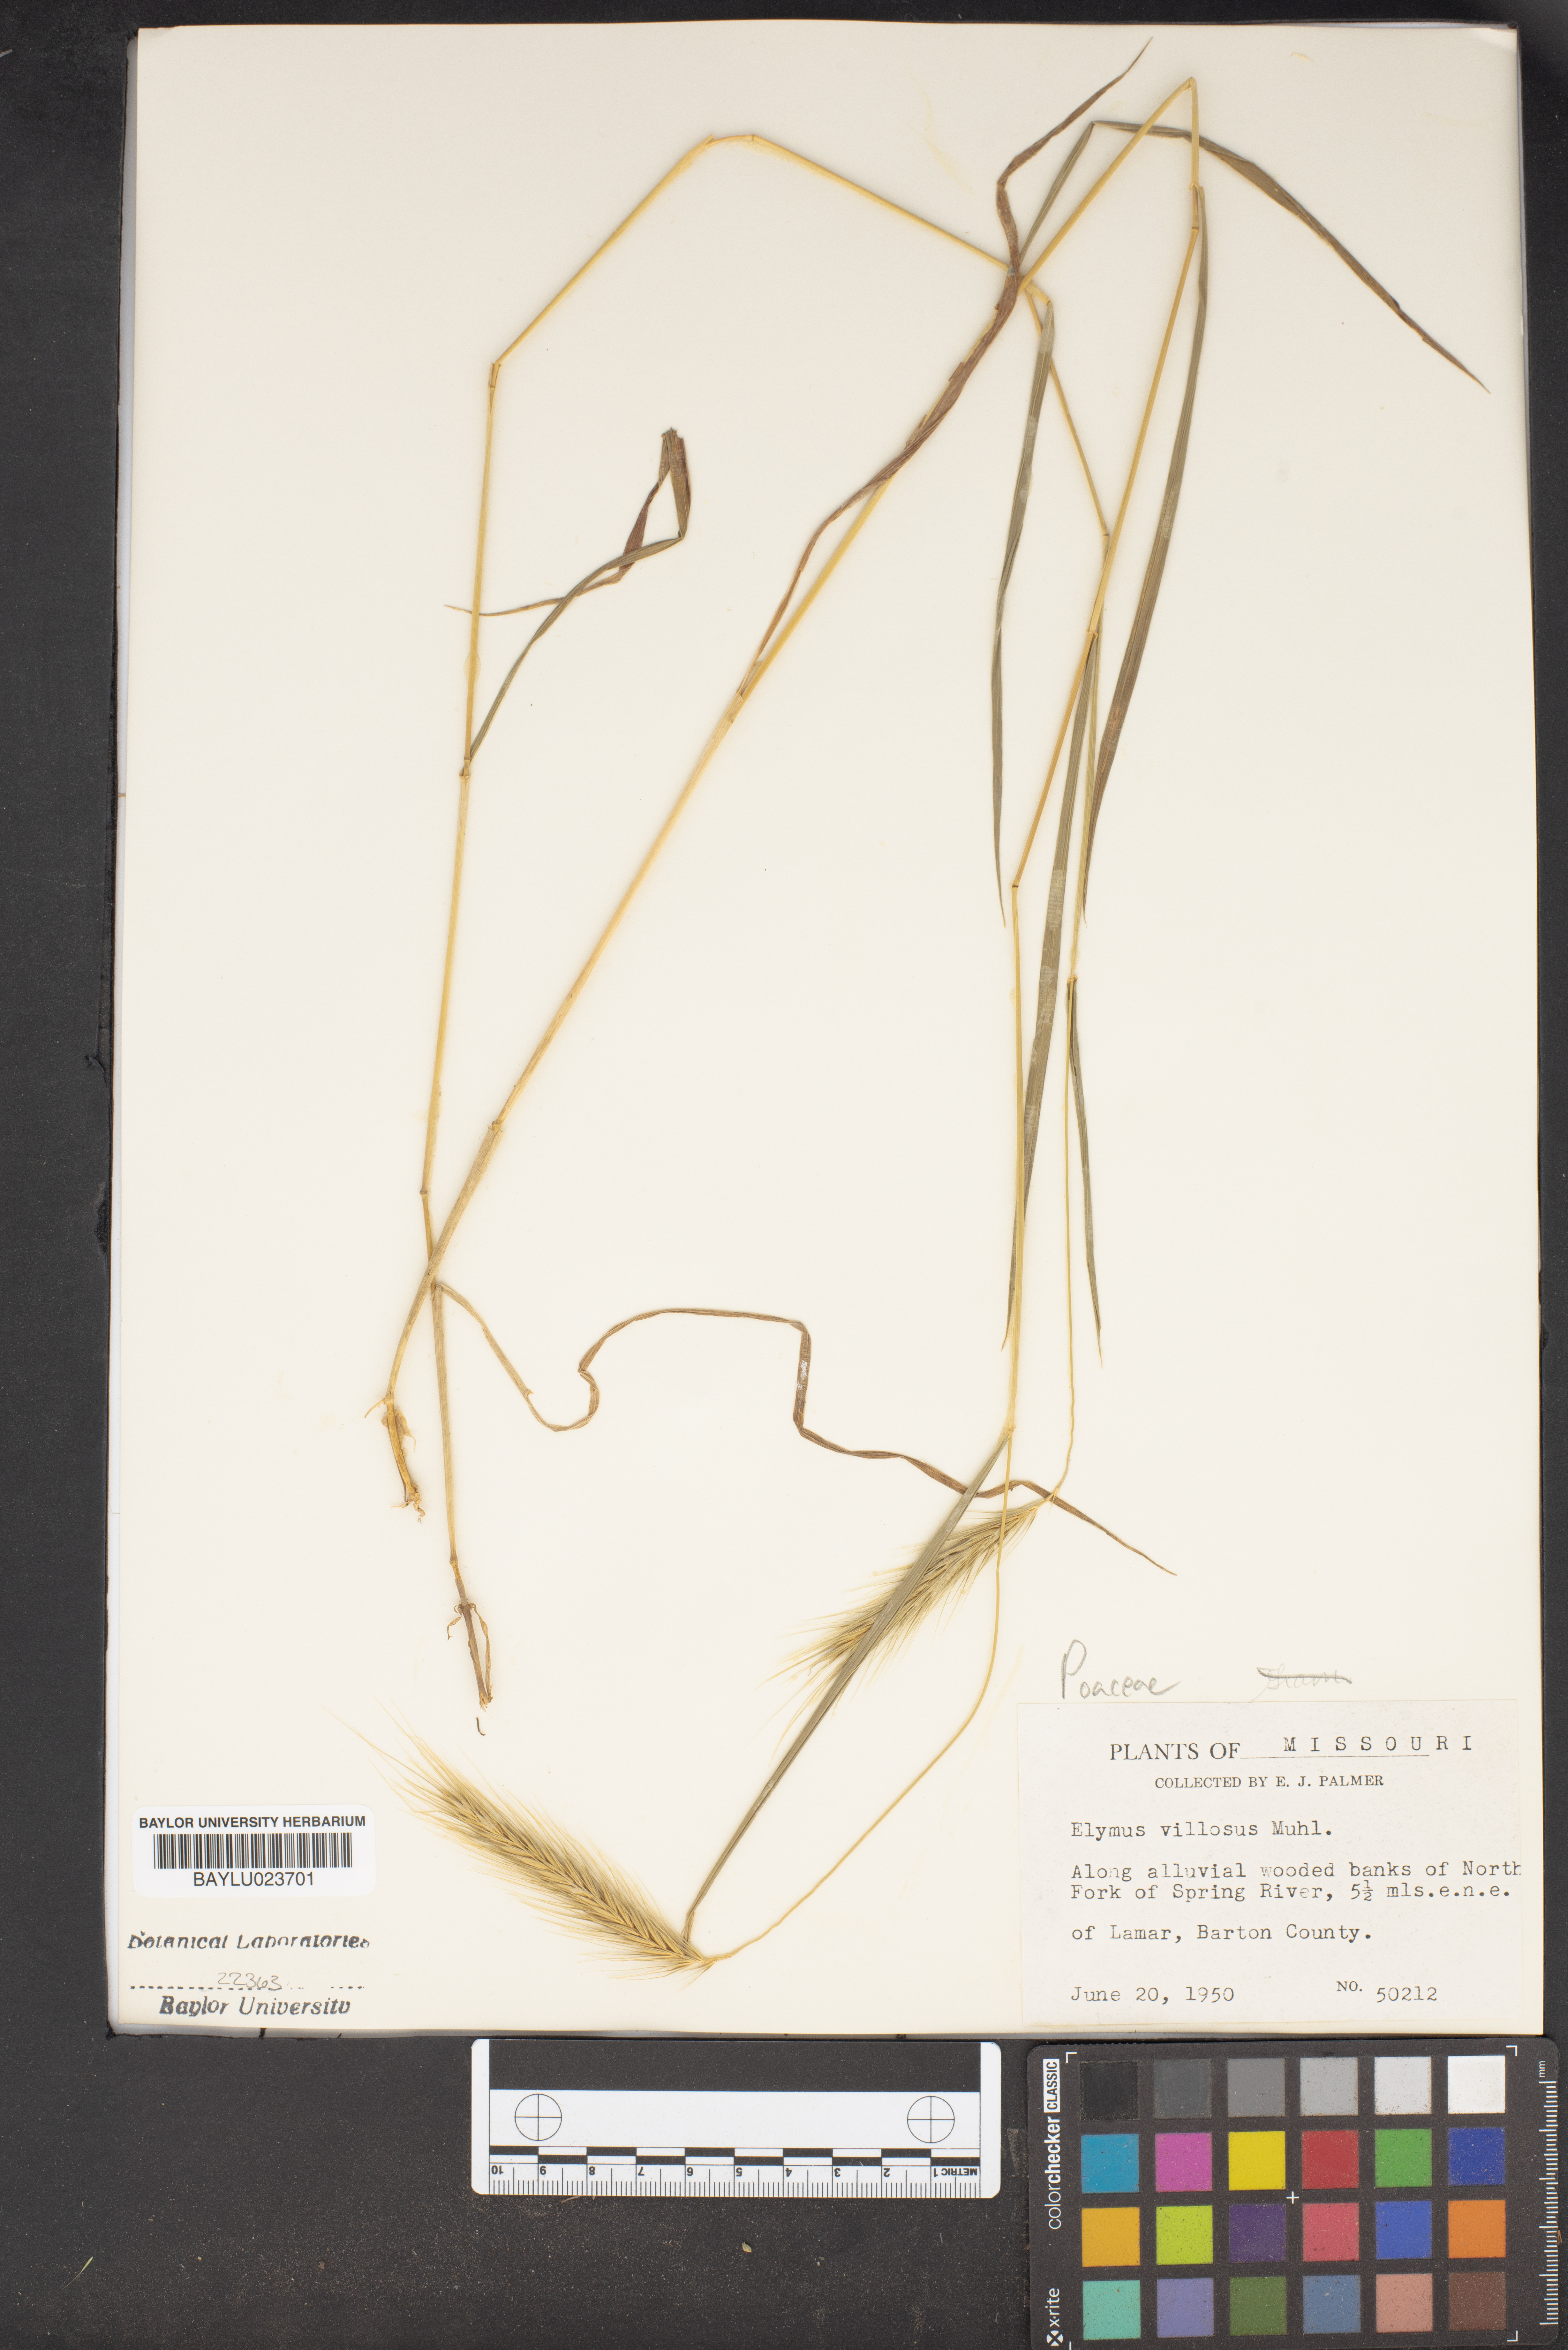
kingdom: Plantae
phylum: Tracheophyta
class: Liliopsida
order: Poales
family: Poaceae
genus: Elymus
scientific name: Elymus villosus
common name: Downy wild rye
